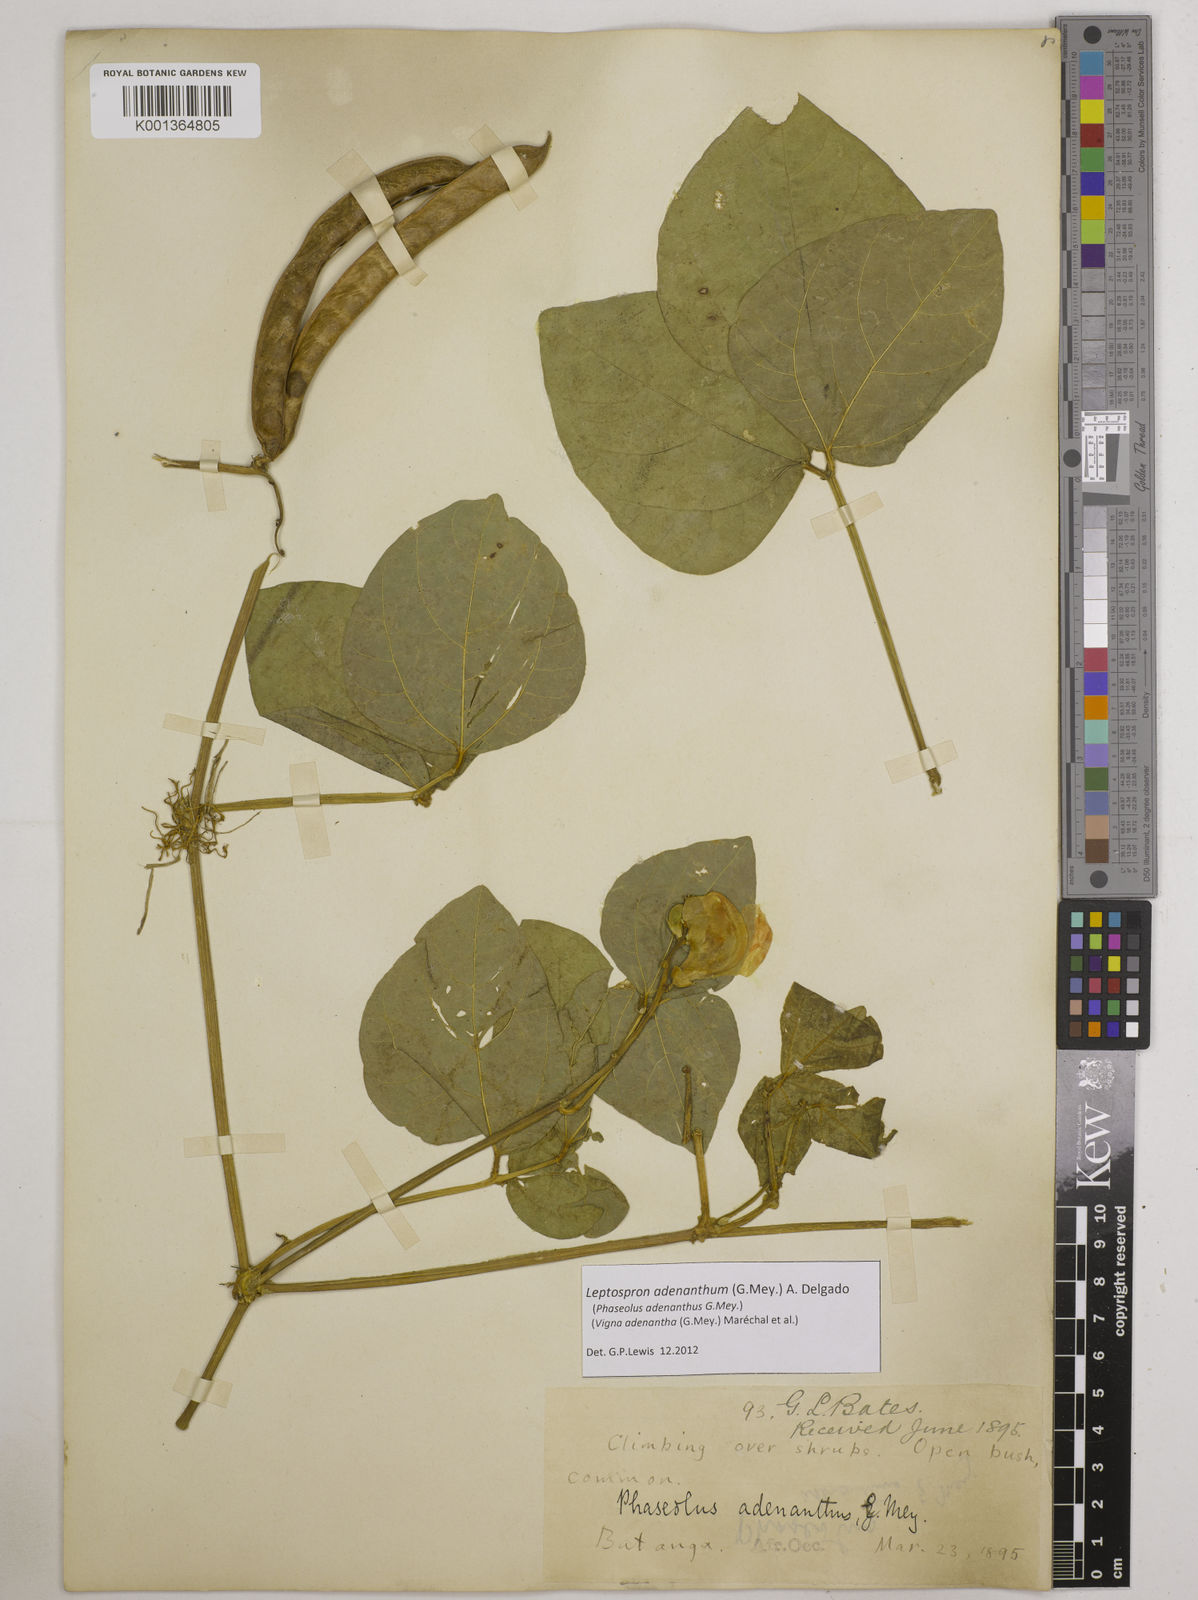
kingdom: Plantae
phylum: Tracheophyta
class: Magnoliopsida
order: Fabales
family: Fabaceae
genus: Leptospron
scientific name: Leptospron adenanthum
